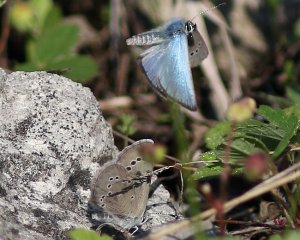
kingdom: Animalia
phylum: Arthropoda
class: Insecta
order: Lepidoptera
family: Lycaenidae
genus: Glaucopsyche
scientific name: Glaucopsyche lygdamus
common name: Silvery Blue
